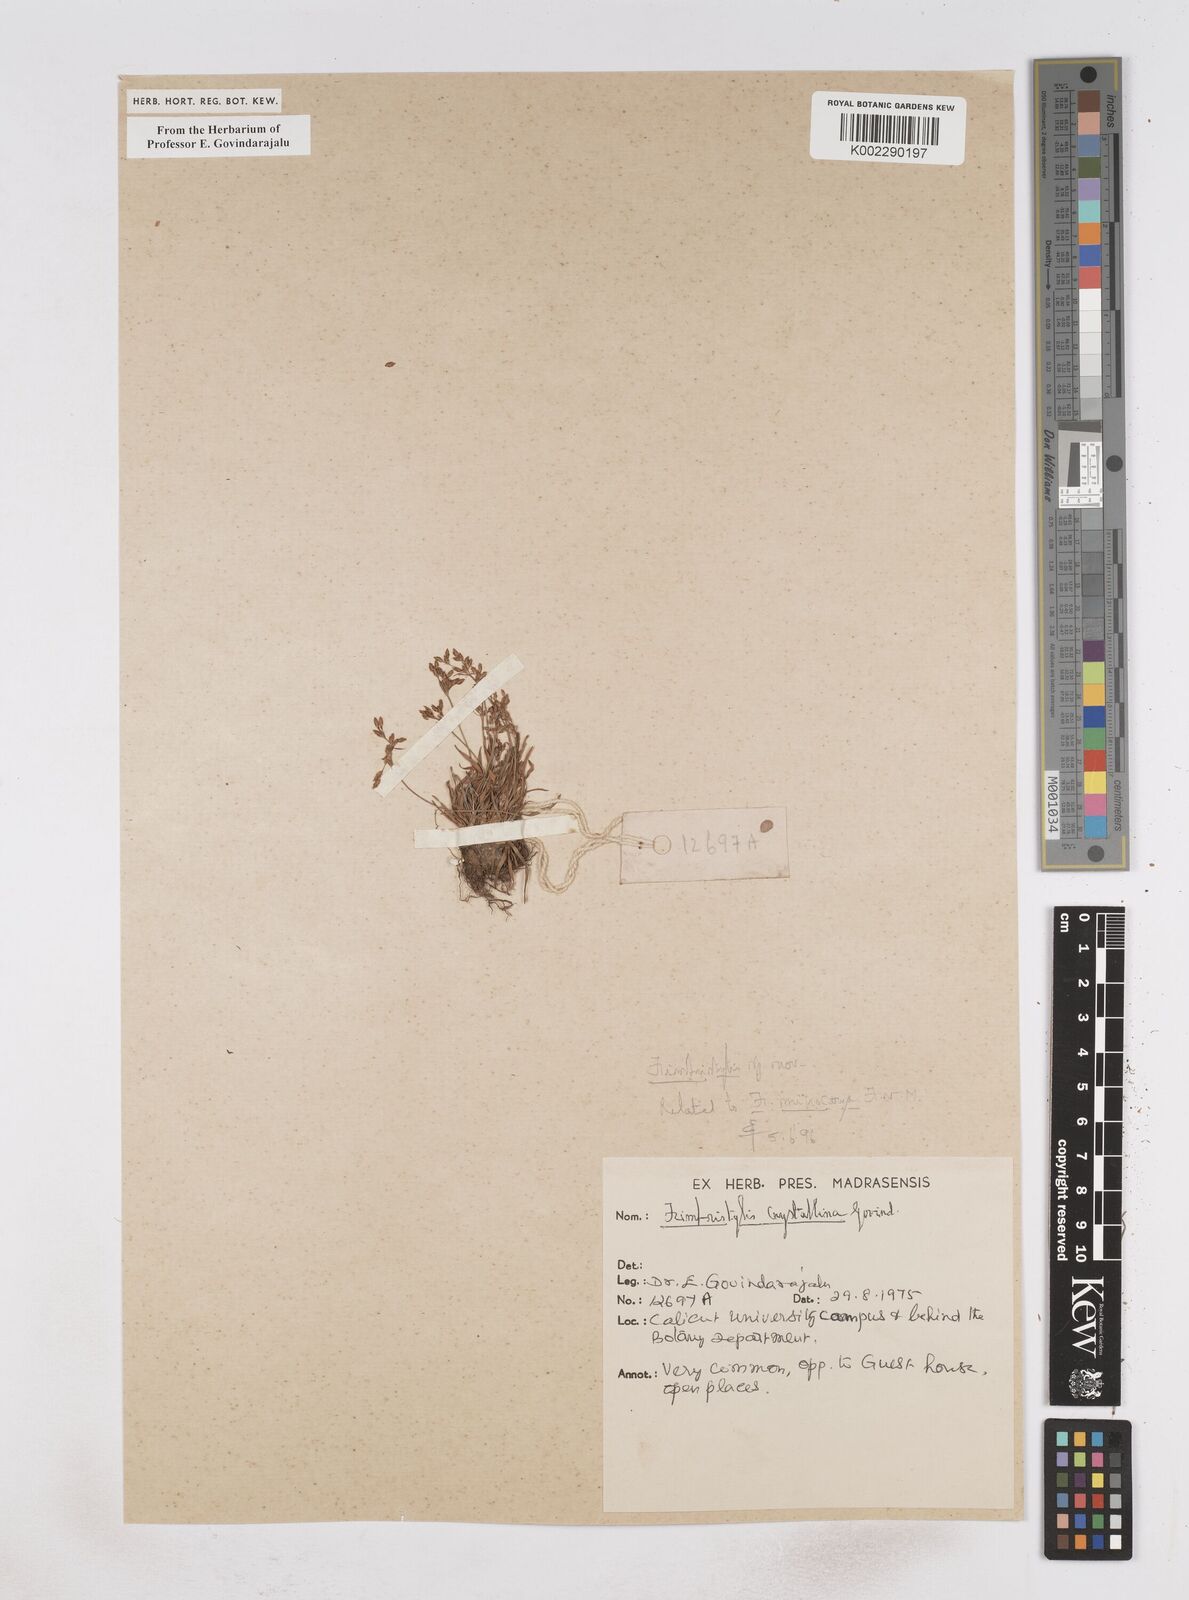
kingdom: Plantae
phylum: Tracheophyta
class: Liliopsida
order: Poales
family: Cyperaceae
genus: Fimbristylis
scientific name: Fimbristylis
